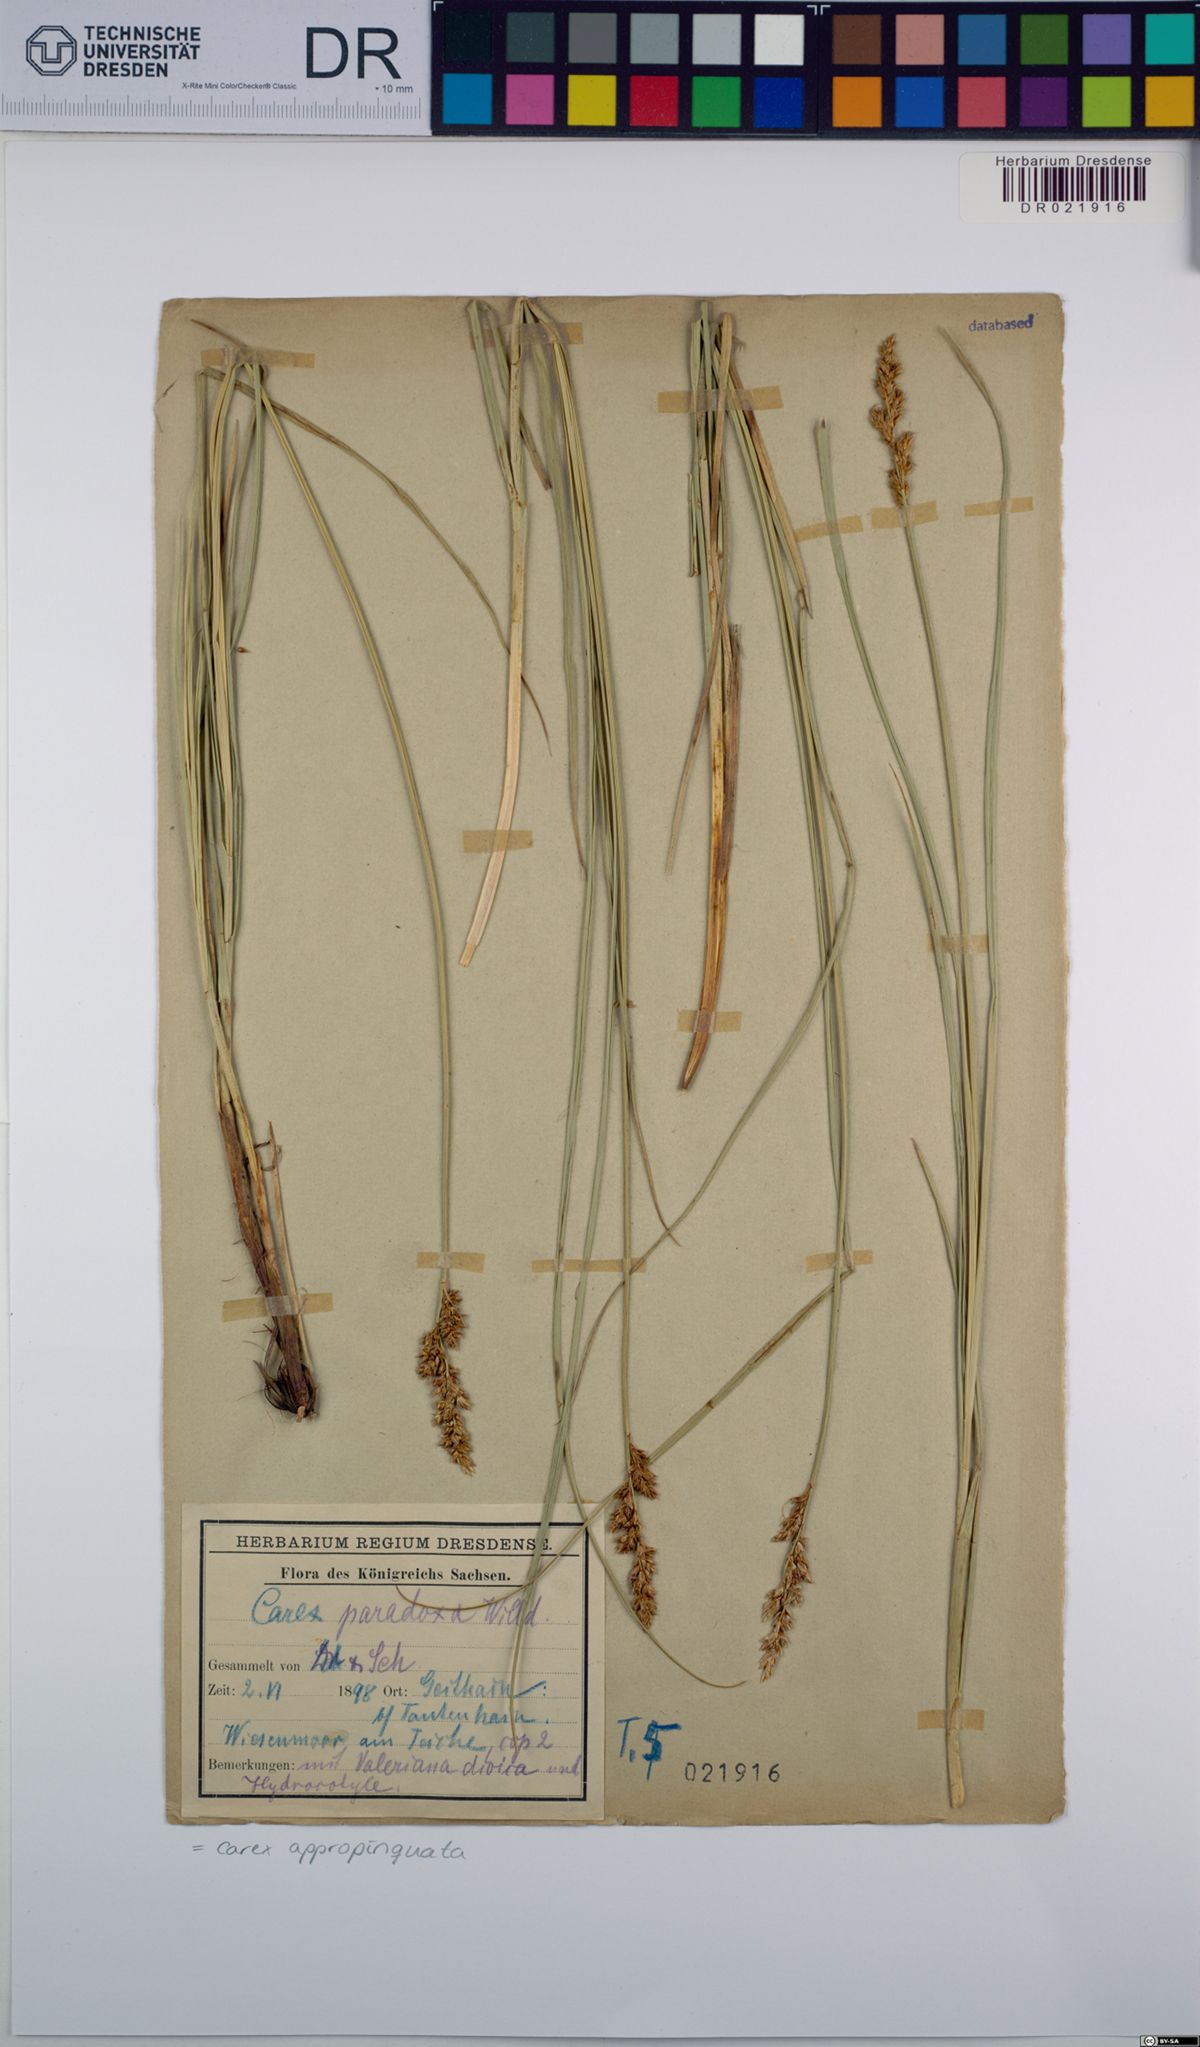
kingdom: Plantae
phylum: Tracheophyta
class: Liliopsida
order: Poales
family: Cyperaceae
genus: Carex
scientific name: Carex appropinquata
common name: Fibrous tussock-sedge
